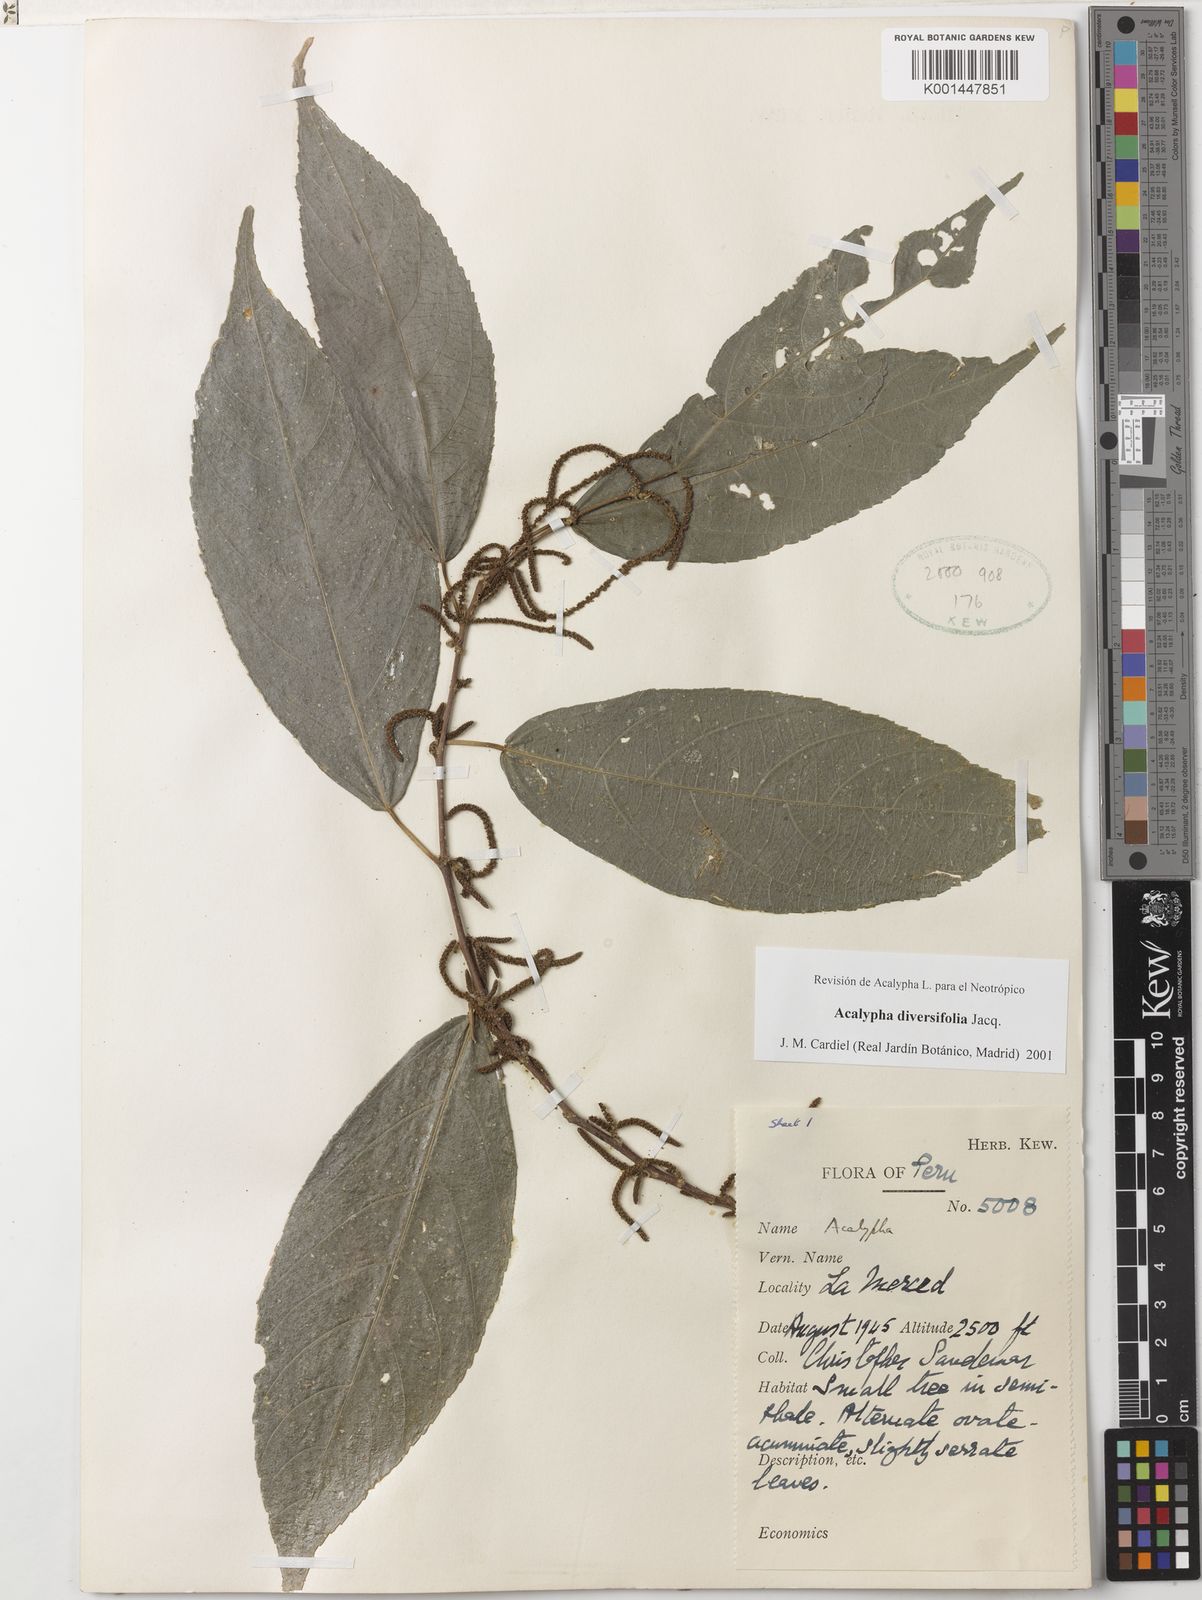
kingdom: Plantae
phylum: Tracheophyta
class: Magnoliopsida
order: Malpighiales
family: Euphorbiaceae
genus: Acalypha
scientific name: Acalypha diversifolia
